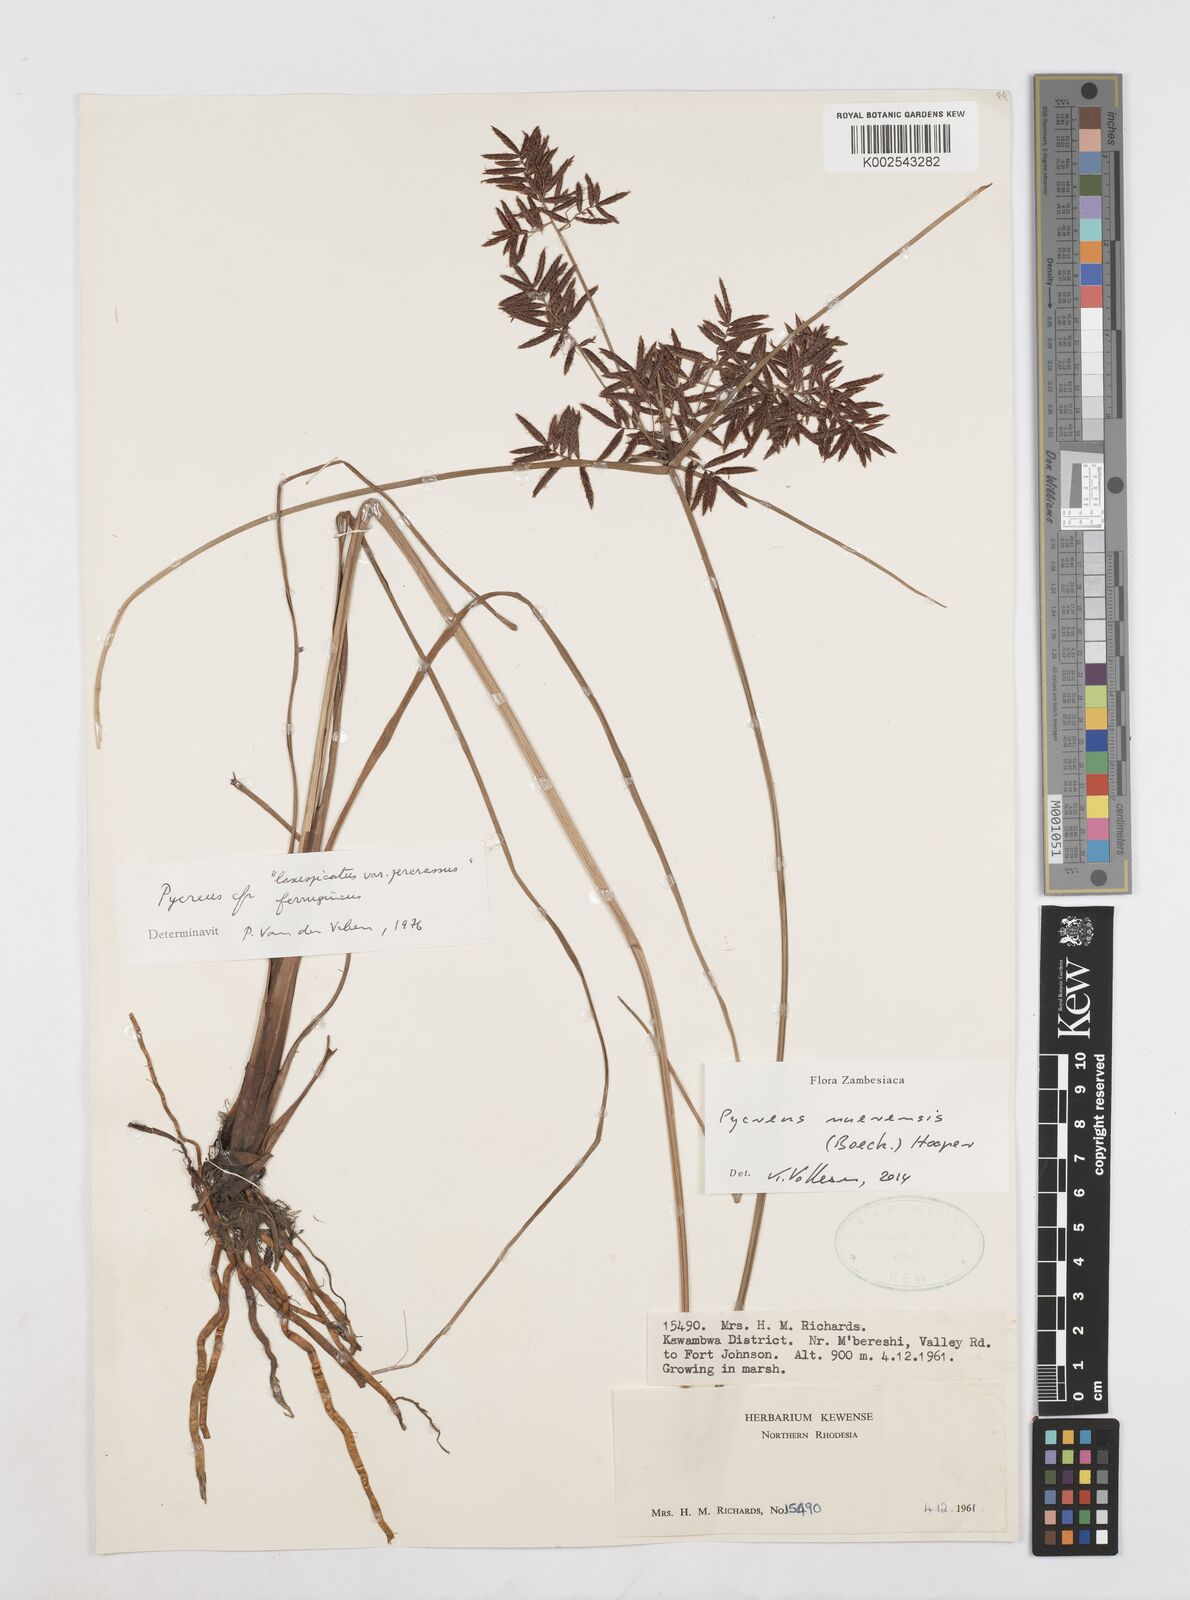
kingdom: Plantae
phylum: Tracheophyta
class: Liliopsida
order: Poales
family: Cyperaceae
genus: Cyperus
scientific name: Cyperus nuerensis
